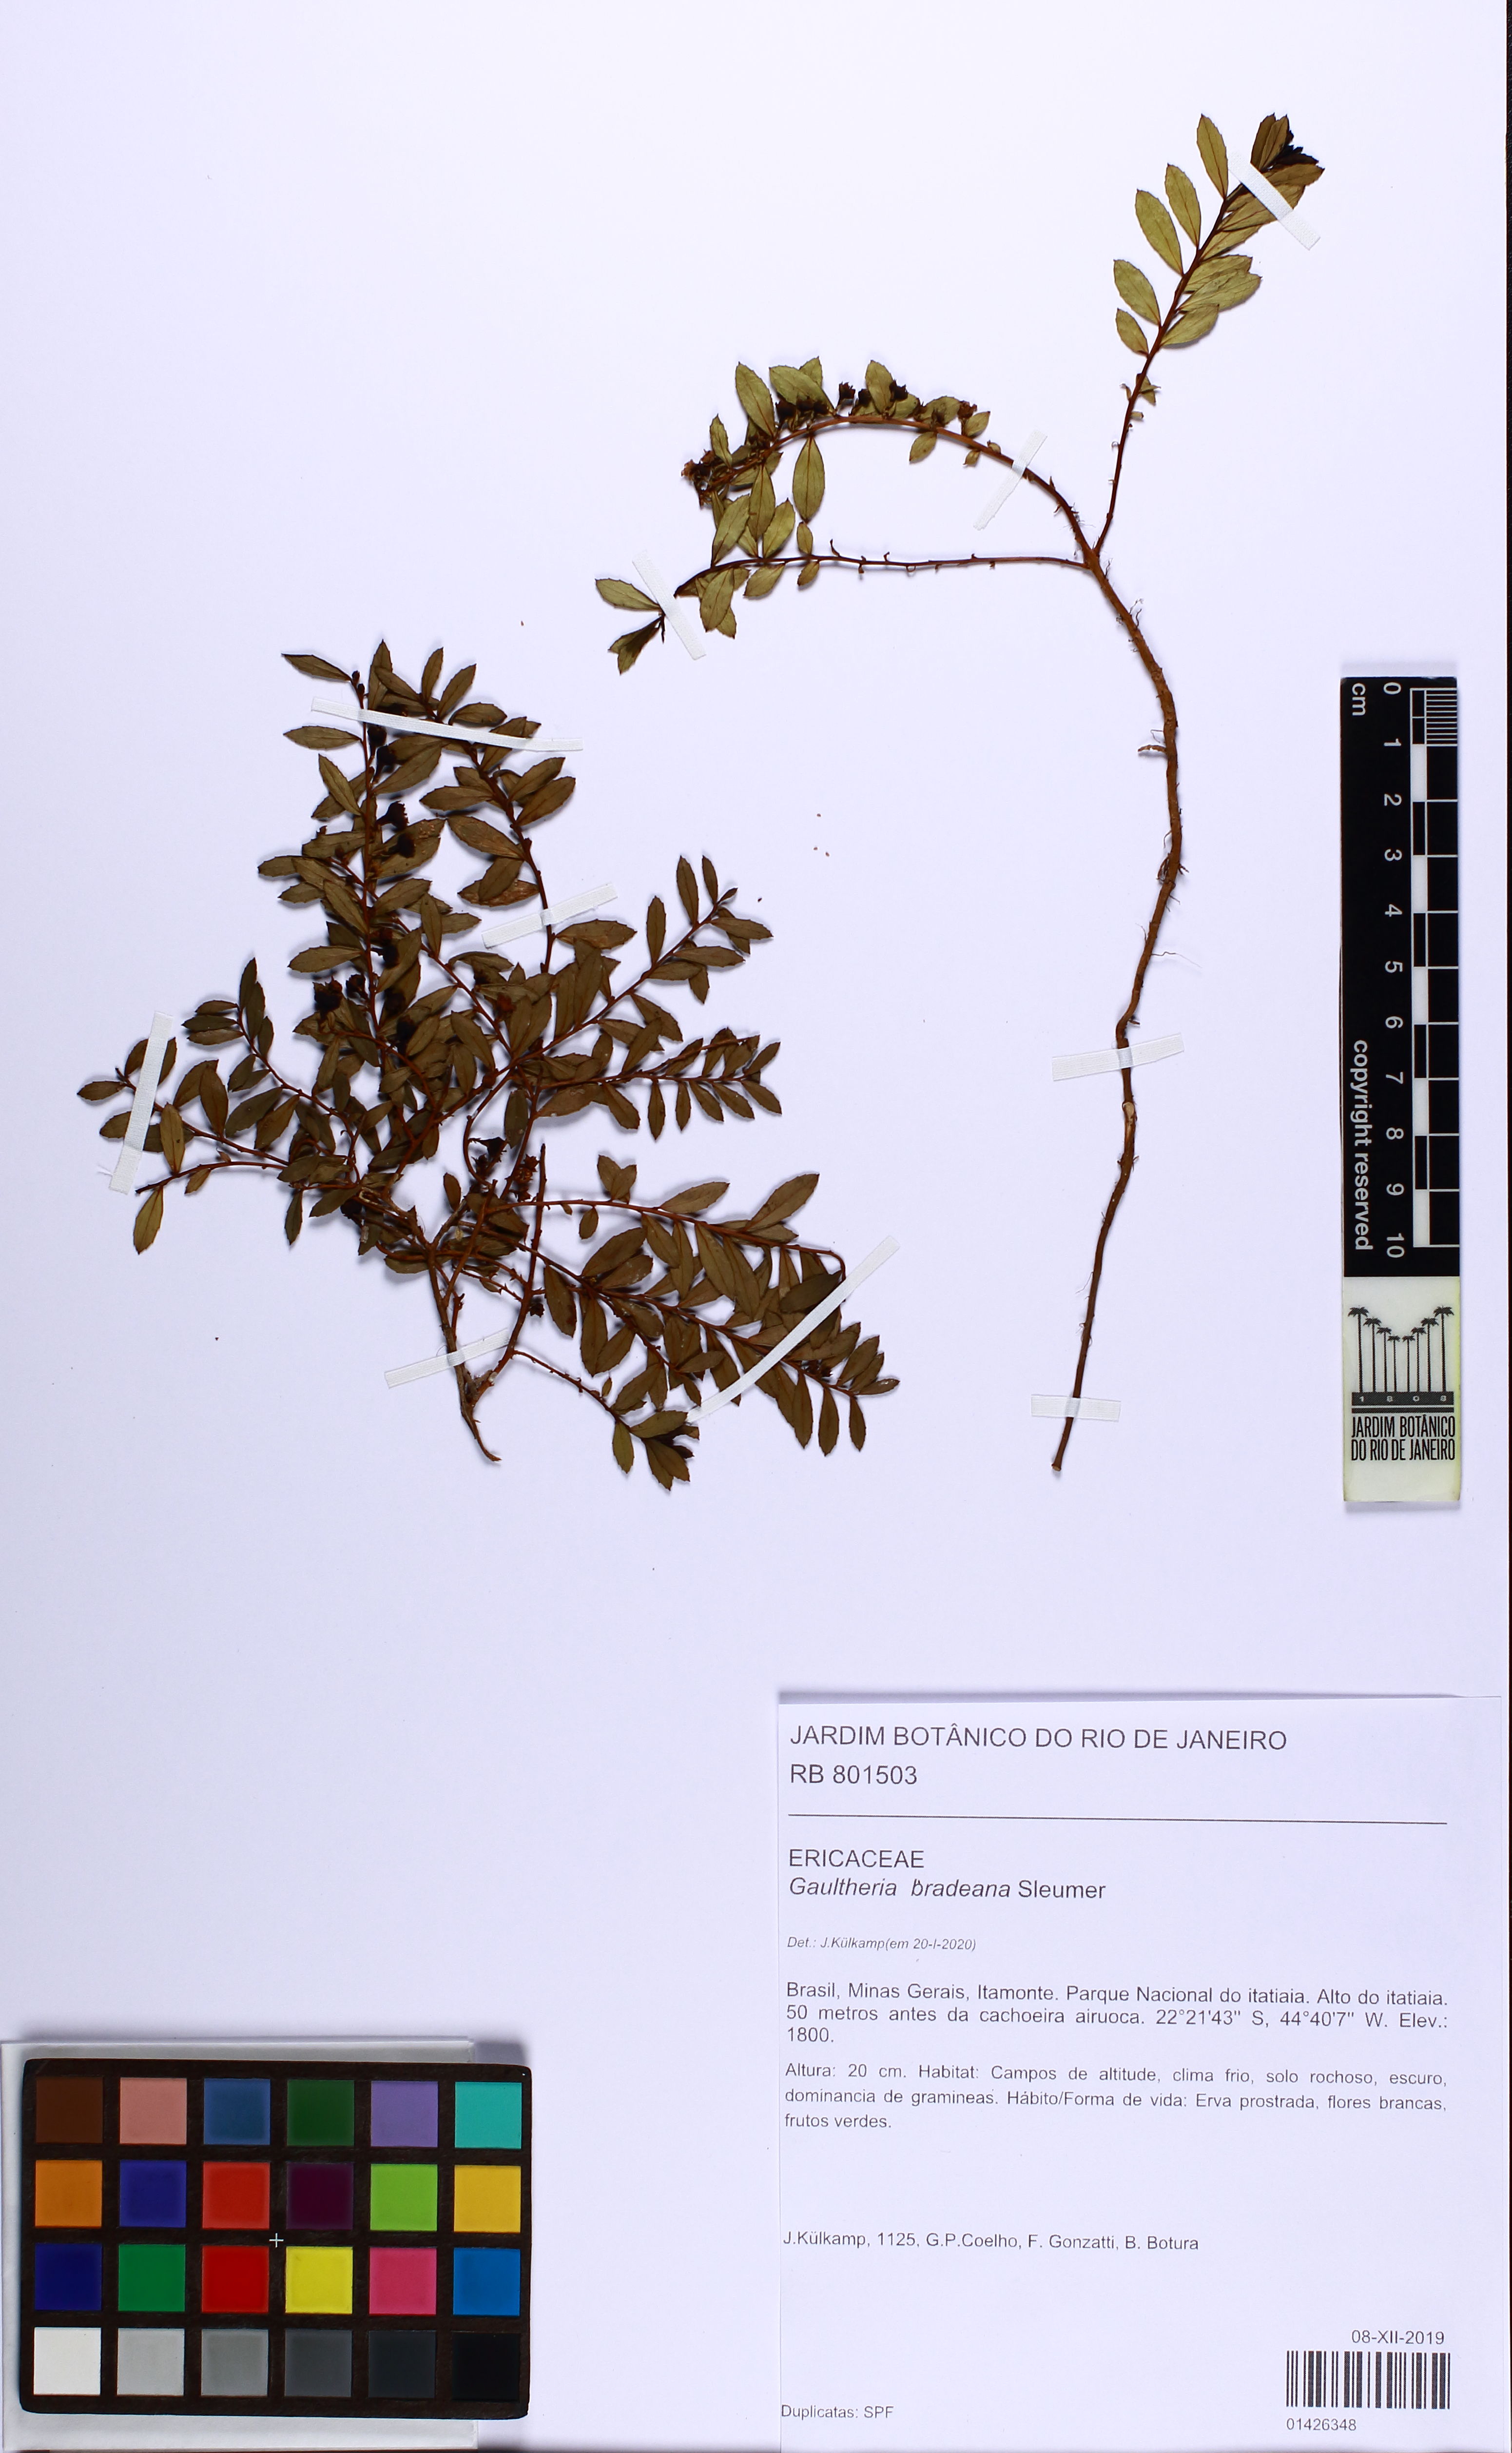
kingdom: Plantae
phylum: Tracheophyta
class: Magnoliopsida
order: Ericales
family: Ericaceae
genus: Gaultheria
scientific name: Gaultheria bradeana
